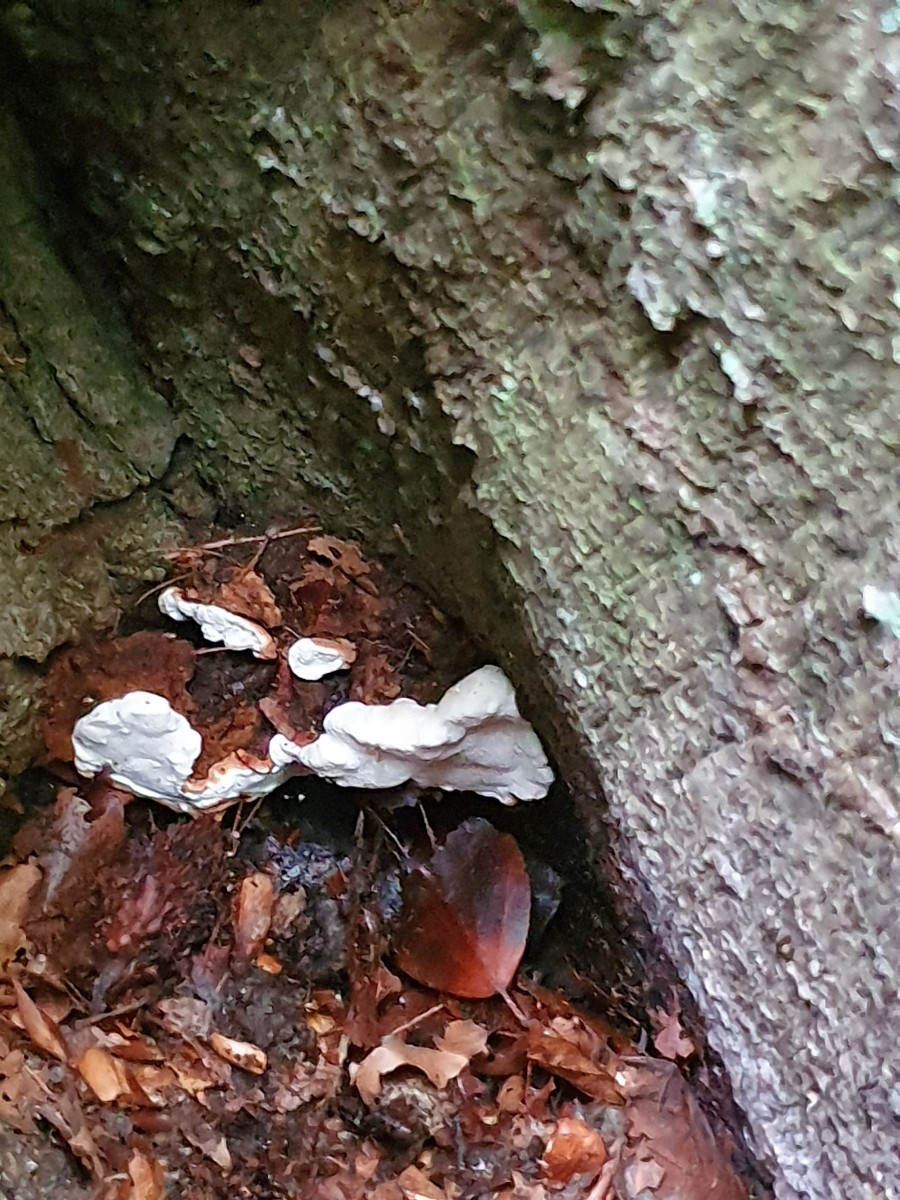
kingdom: Fungi
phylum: Basidiomycota
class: Agaricomycetes
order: Russulales
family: Bondarzewiaceae
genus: Heterobasidion
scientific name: Heterobasidion annosum
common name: almindelig rodfordærver
